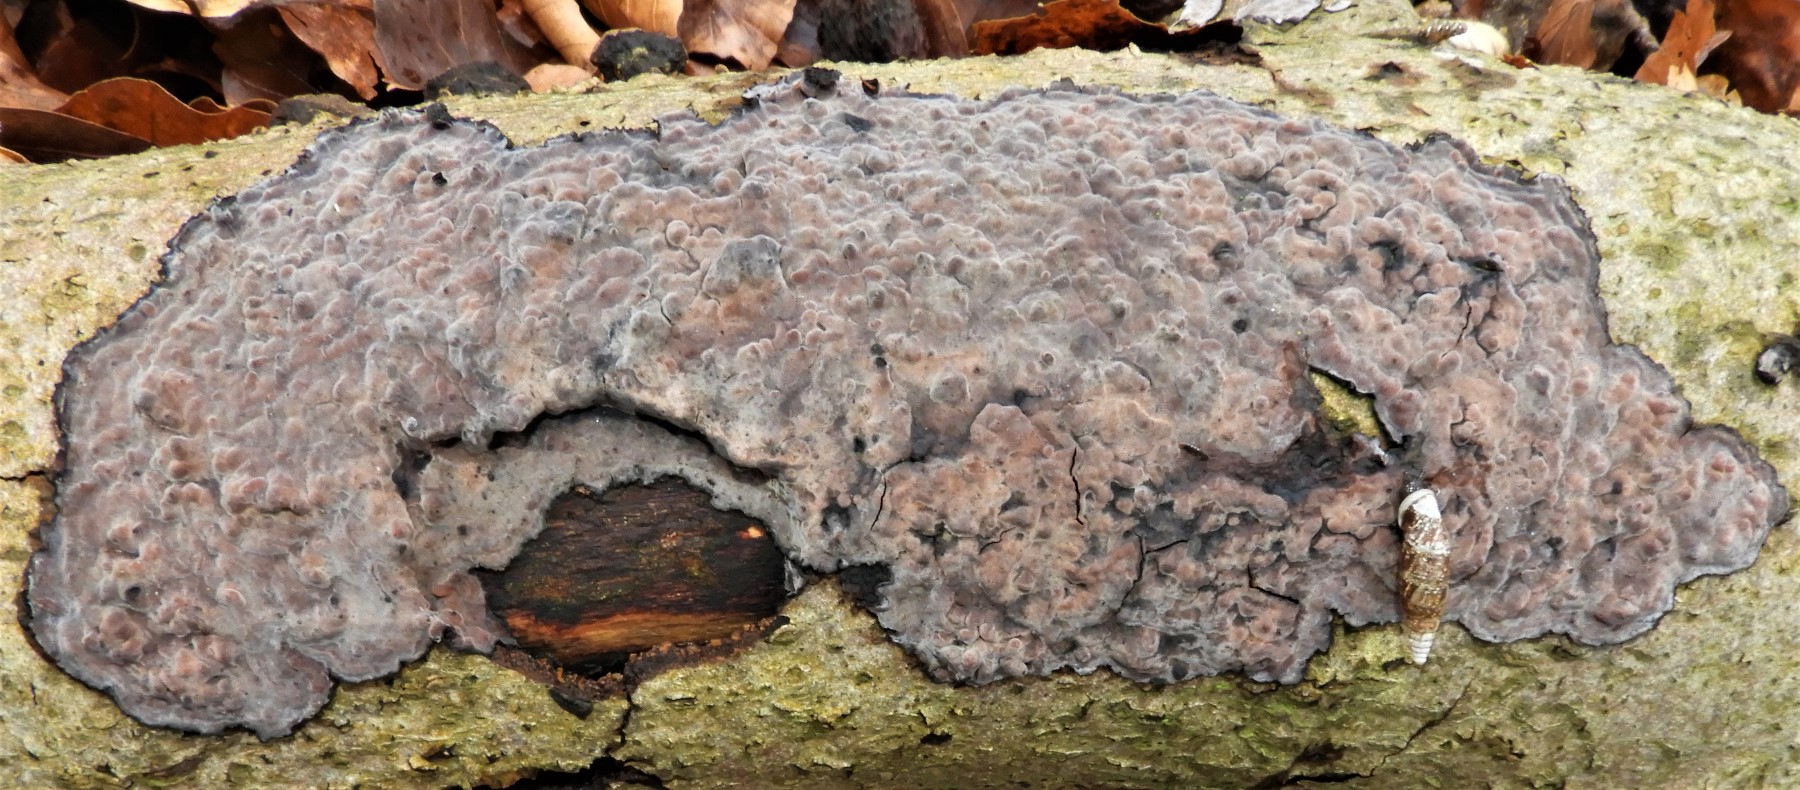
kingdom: Fungi
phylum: Basidiomycota
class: Agaricomycetes
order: Russulales
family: Peniophoraceae
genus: Peniophora
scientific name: Peniophora quercina
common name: ege-voksskind
